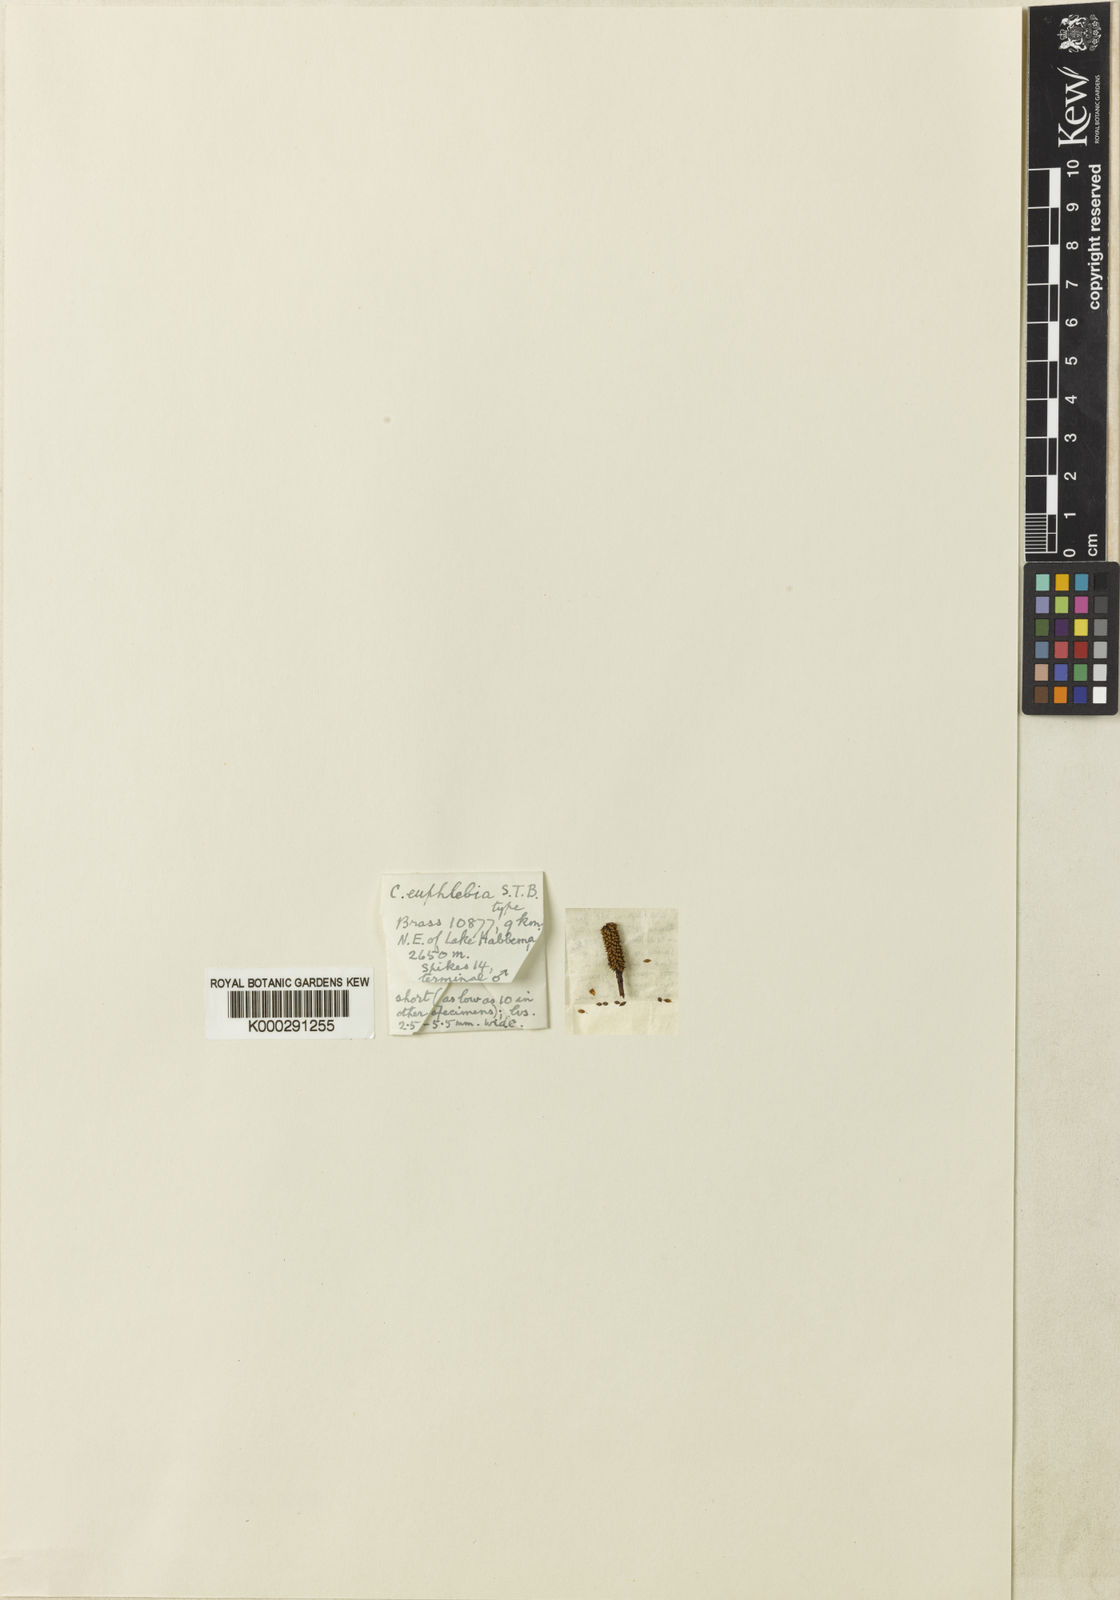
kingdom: Plantae
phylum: Tracheophyta
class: Liliopsida
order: Poales
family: Cyperaceae
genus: Carex
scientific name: Carex graeffeana
